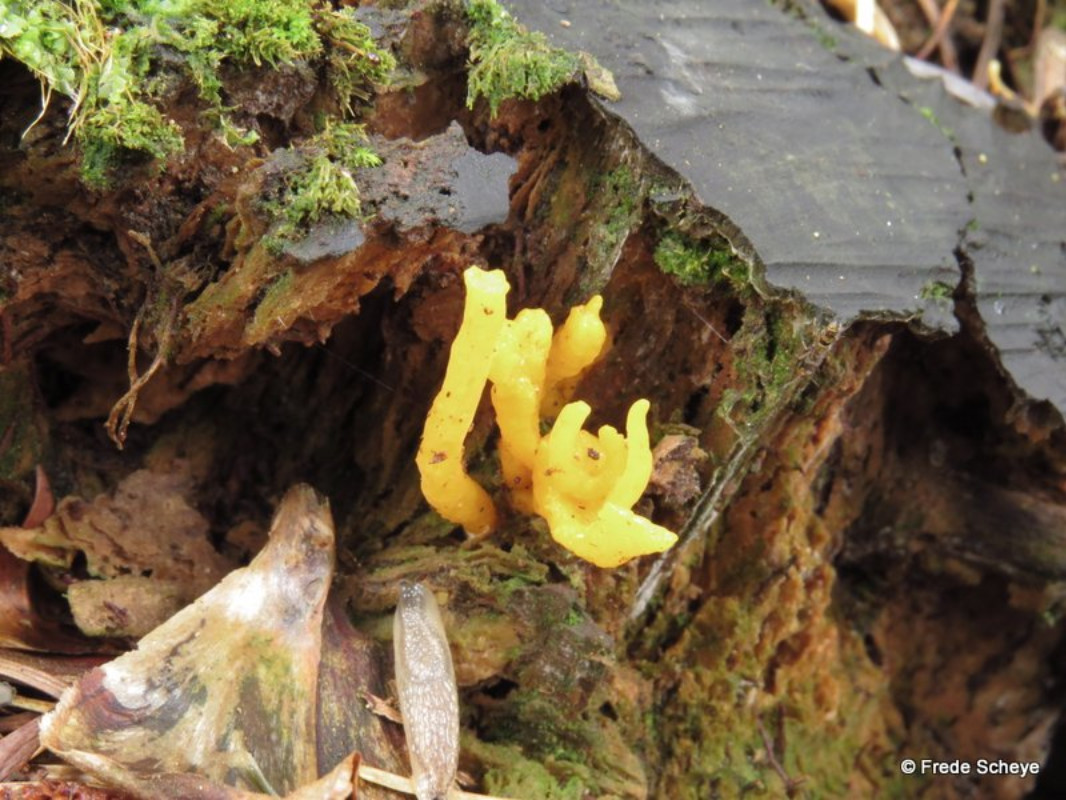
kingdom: Fungi
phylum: Basidiomycota
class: Dacrymycetes
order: Dacrymycetales
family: Dacrymycetaceae
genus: Calocera
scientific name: Calocera viscosa
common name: almindelig guldgaffel
